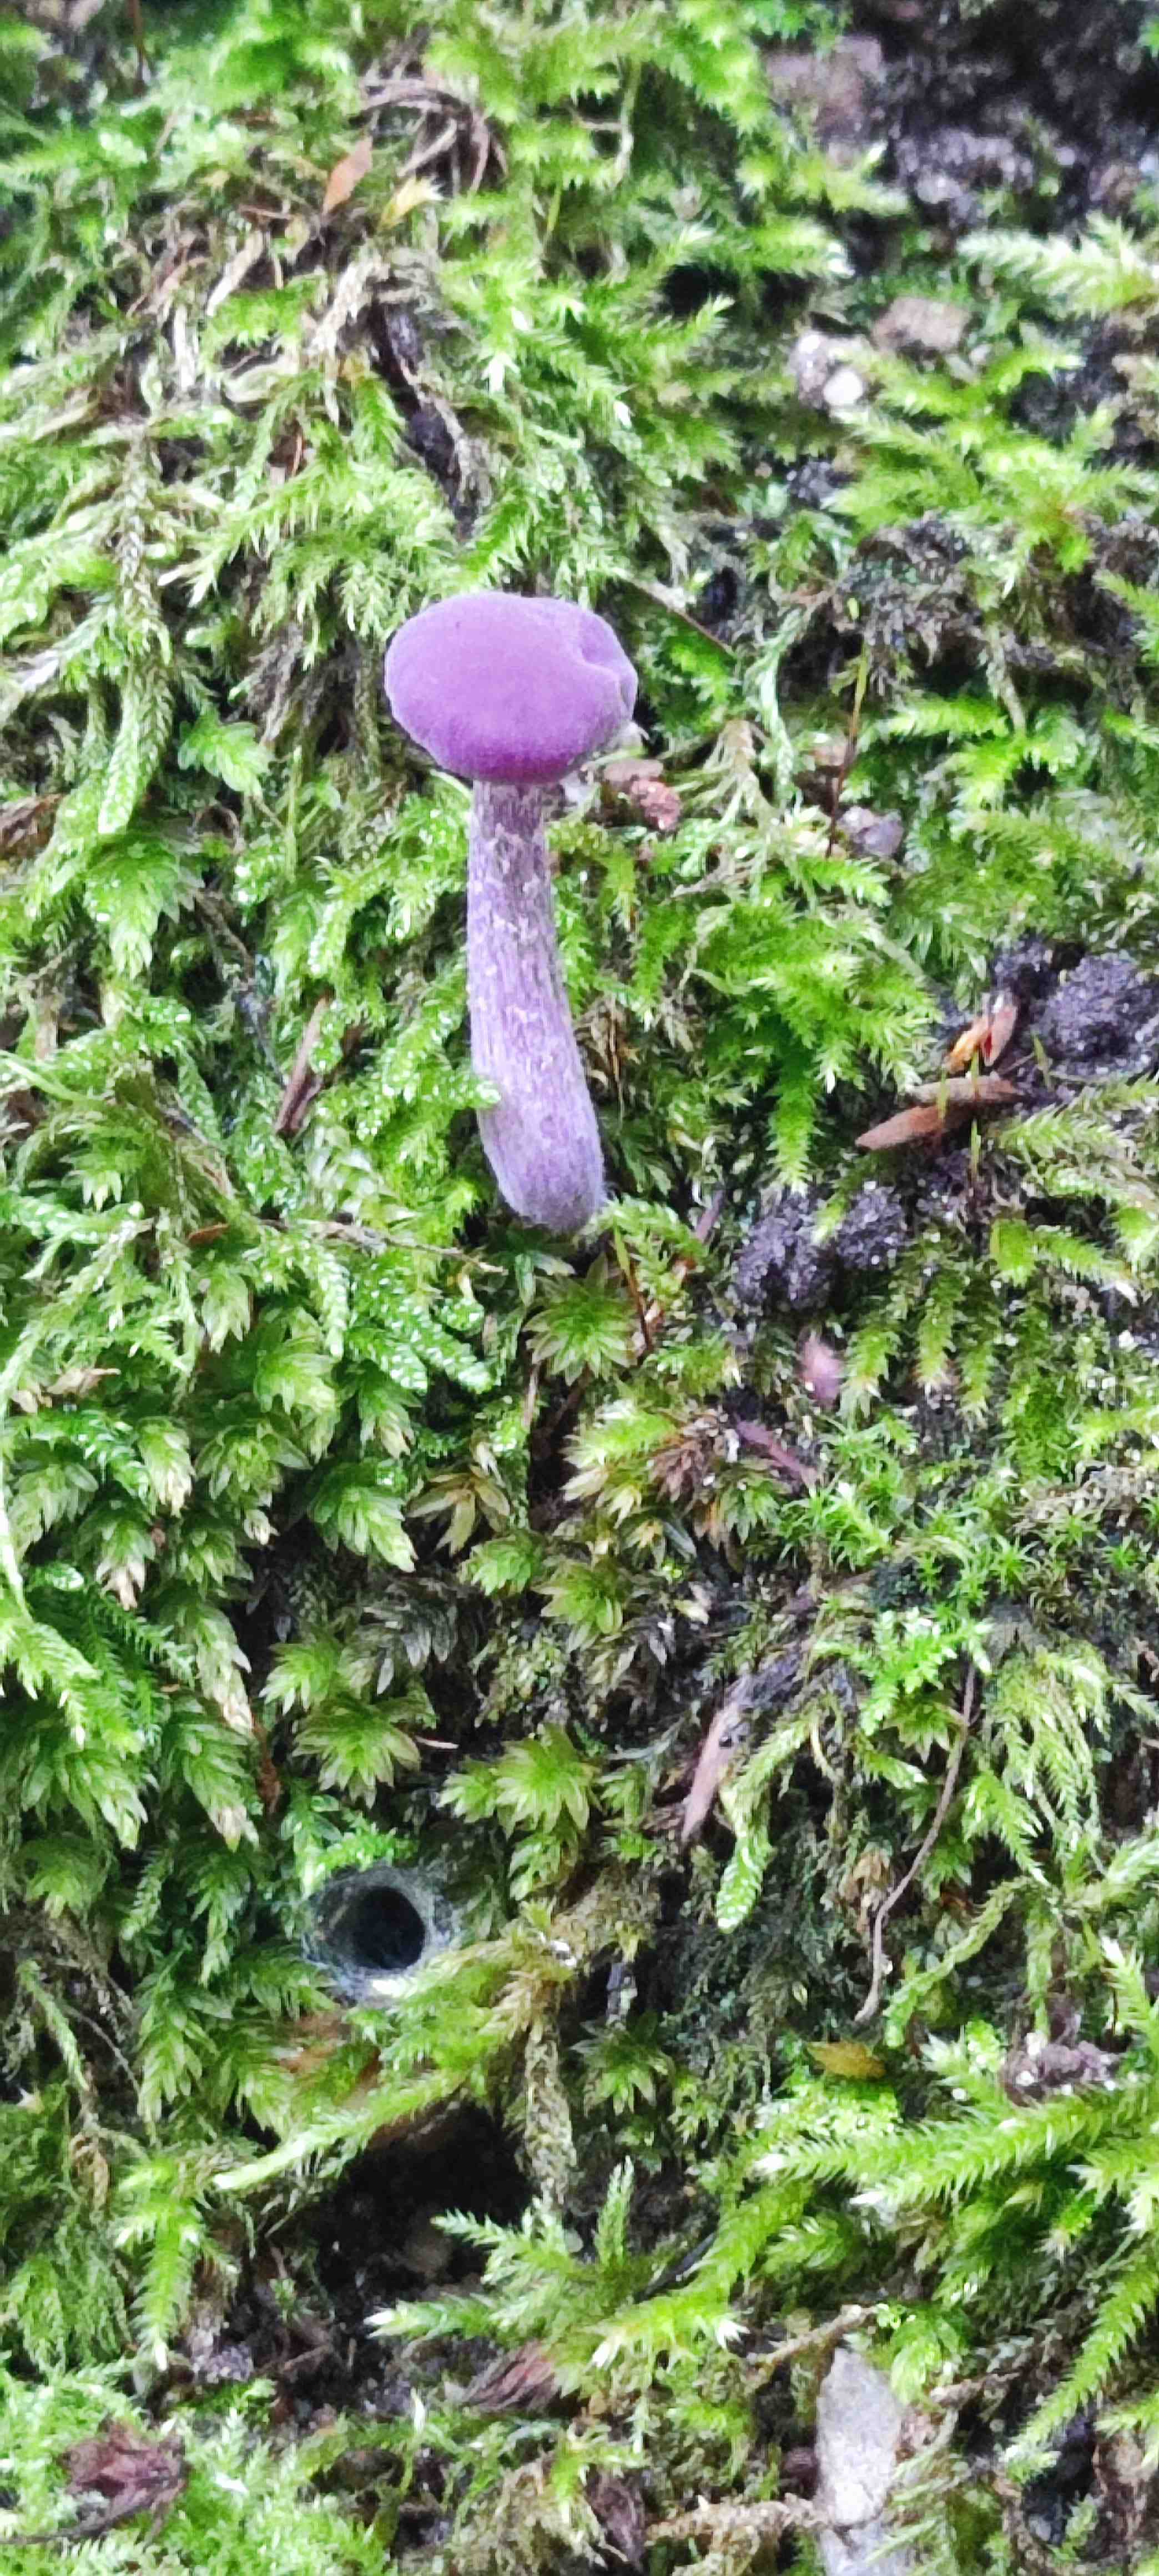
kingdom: Fungi
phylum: Basidiomycota
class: Agaricomycetes
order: Agaricales
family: Hydnangiaceae
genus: Laccaria
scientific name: Laccaria amethystina
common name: violet ametysthat
